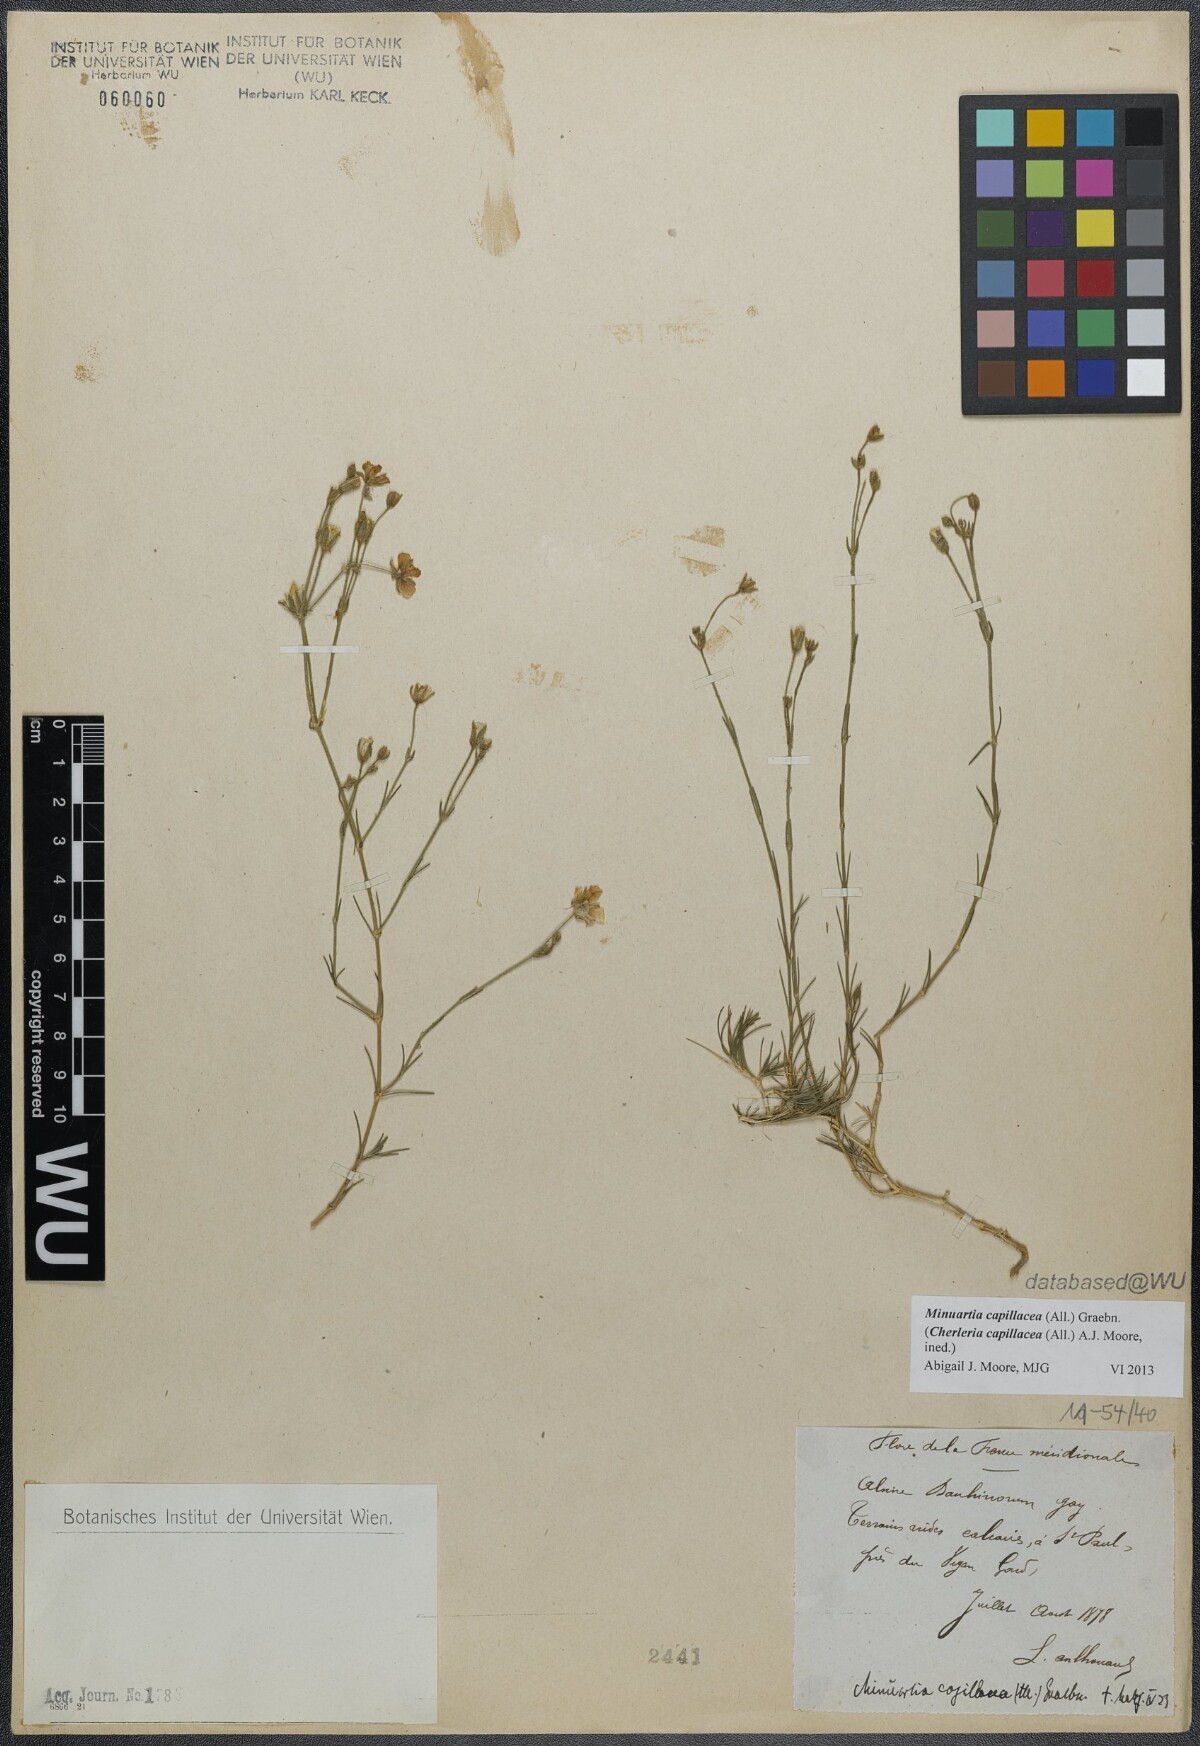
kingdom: Plantae
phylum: Tracheophyta
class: Magnoliopsida
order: Caryophyllales
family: Caryophyllaceae
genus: Cherleria
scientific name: Cherleria capillacea
